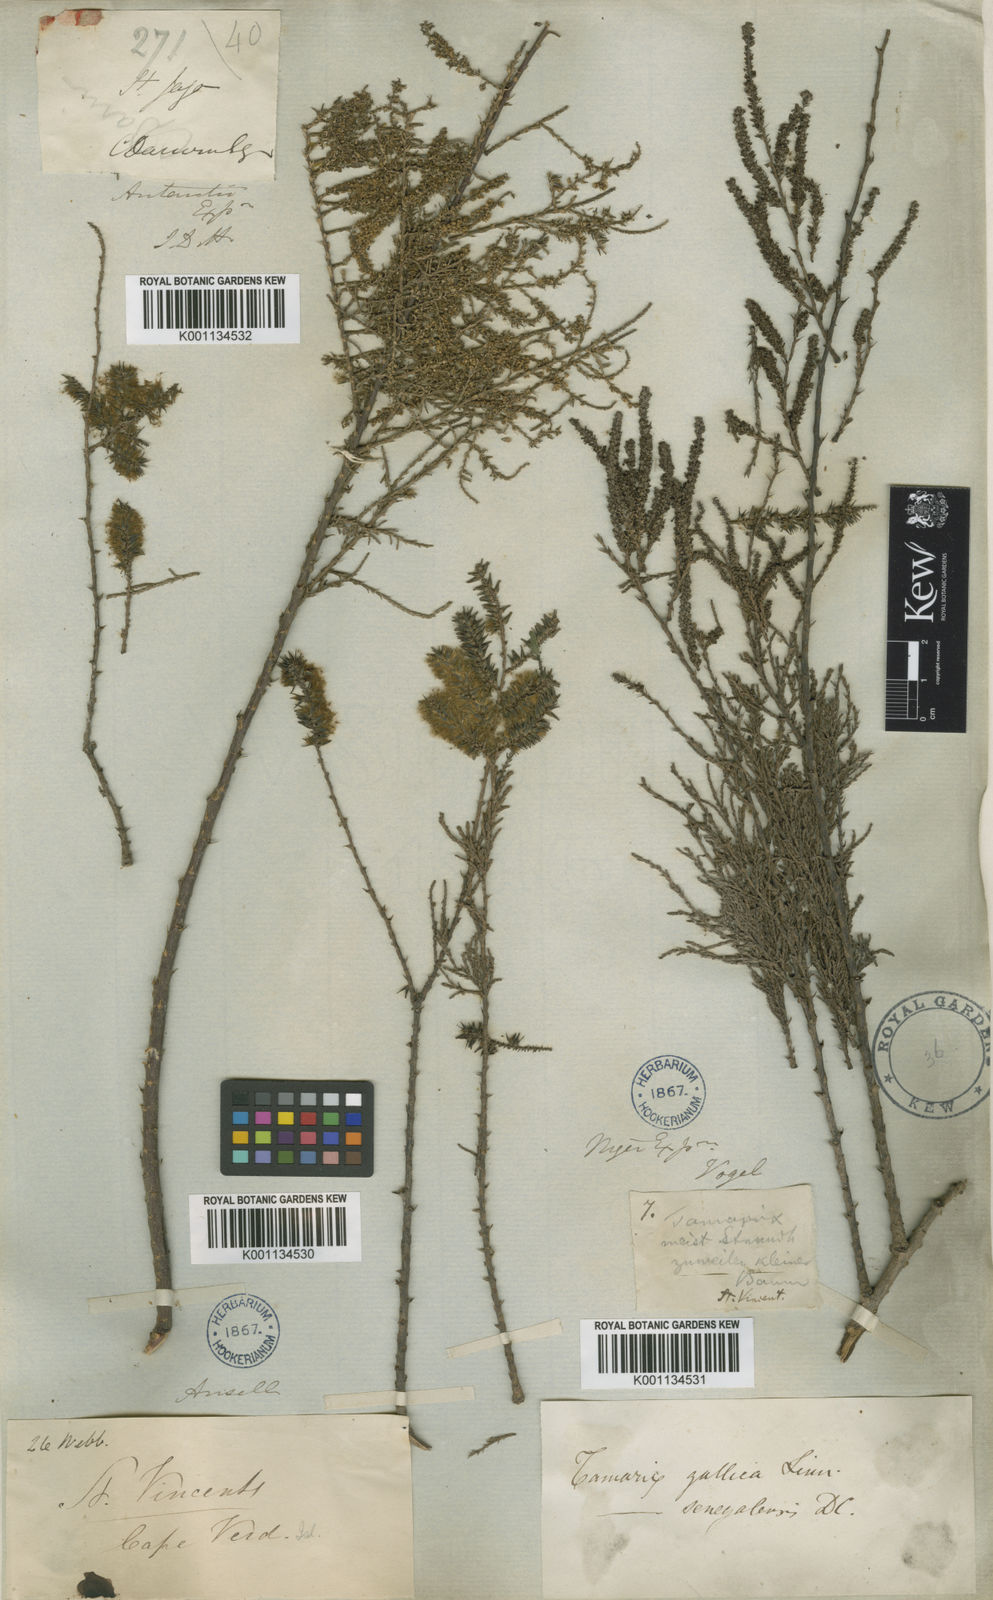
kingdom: Plantae
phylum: Tracheophyta
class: Magnoliopsida
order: Caryophyllales
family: Tamaricaceae
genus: Tamarix
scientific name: Tamarix senegalensis
